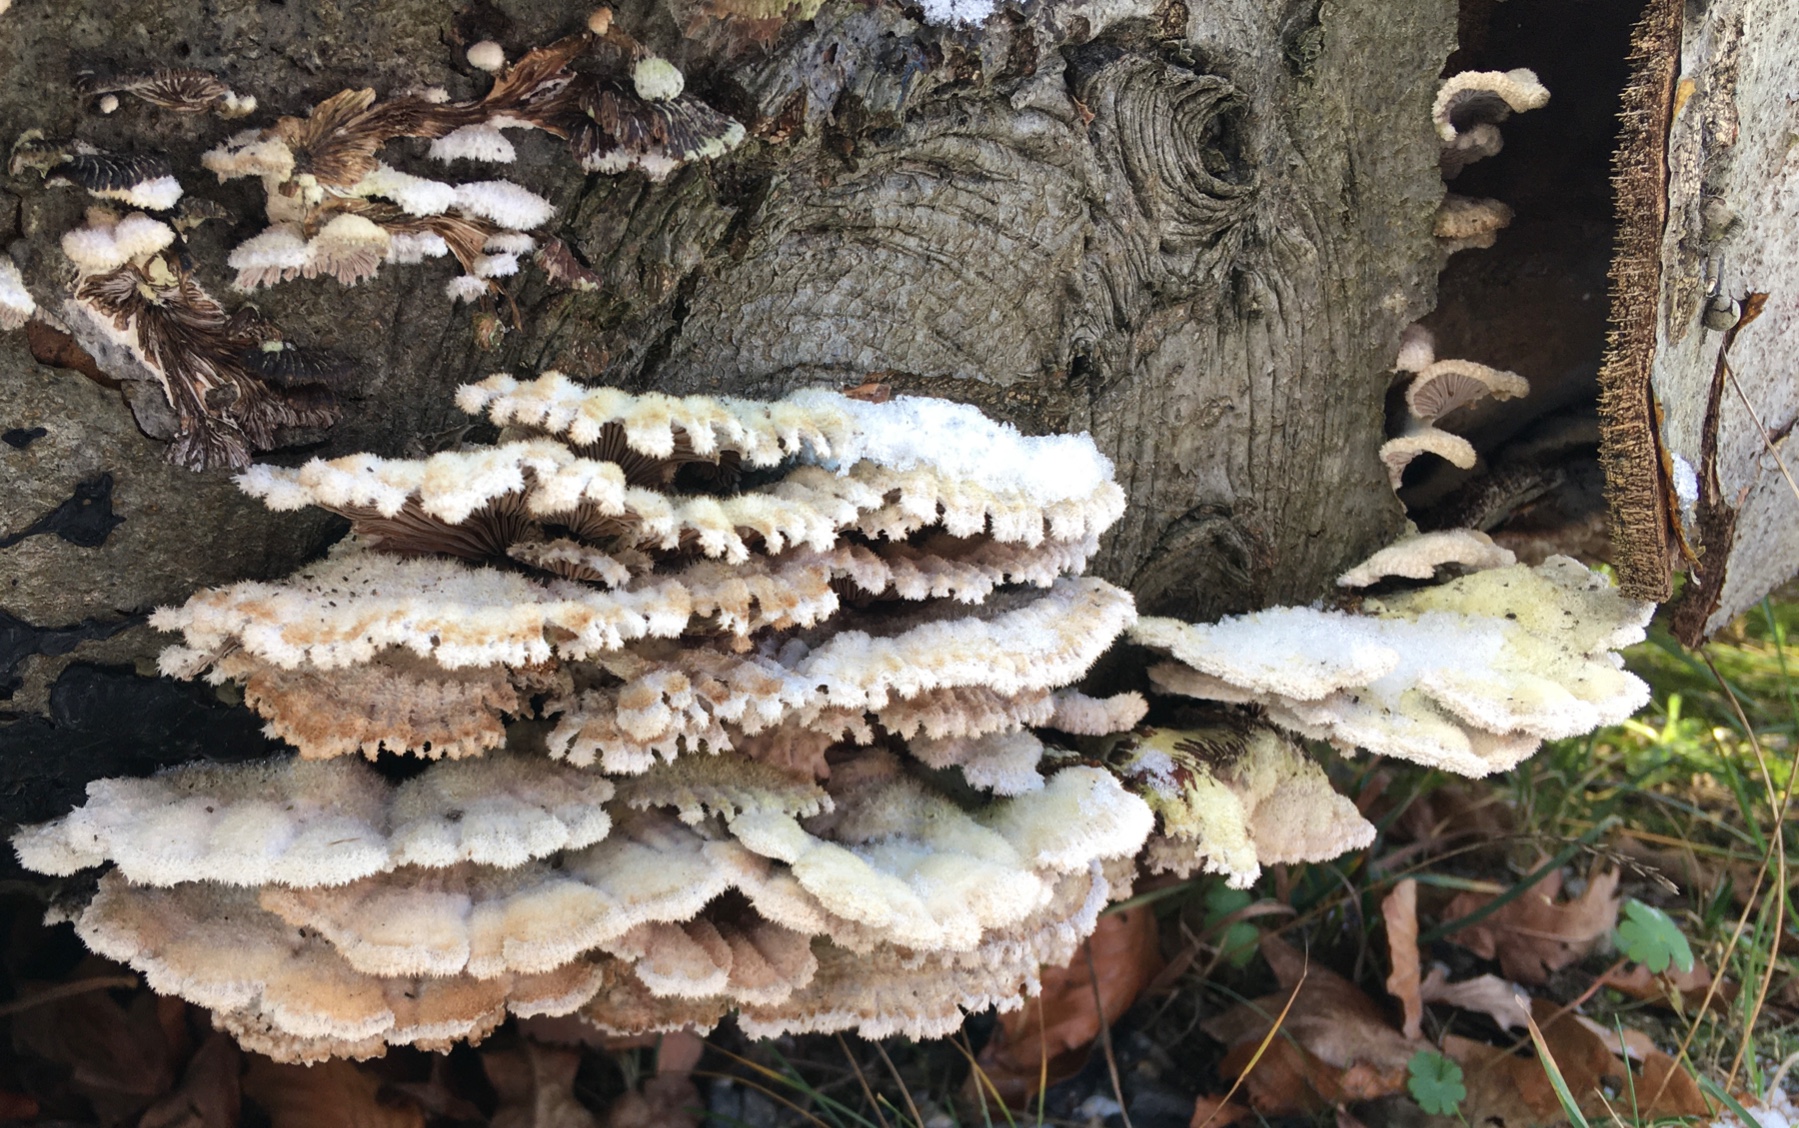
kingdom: Fungi
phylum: Basidiomycota
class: Agaricomycetes
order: Agaricales
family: Schizophyllaceae
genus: Schizophyllum
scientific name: Schizophyllum commune
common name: kløvblad
